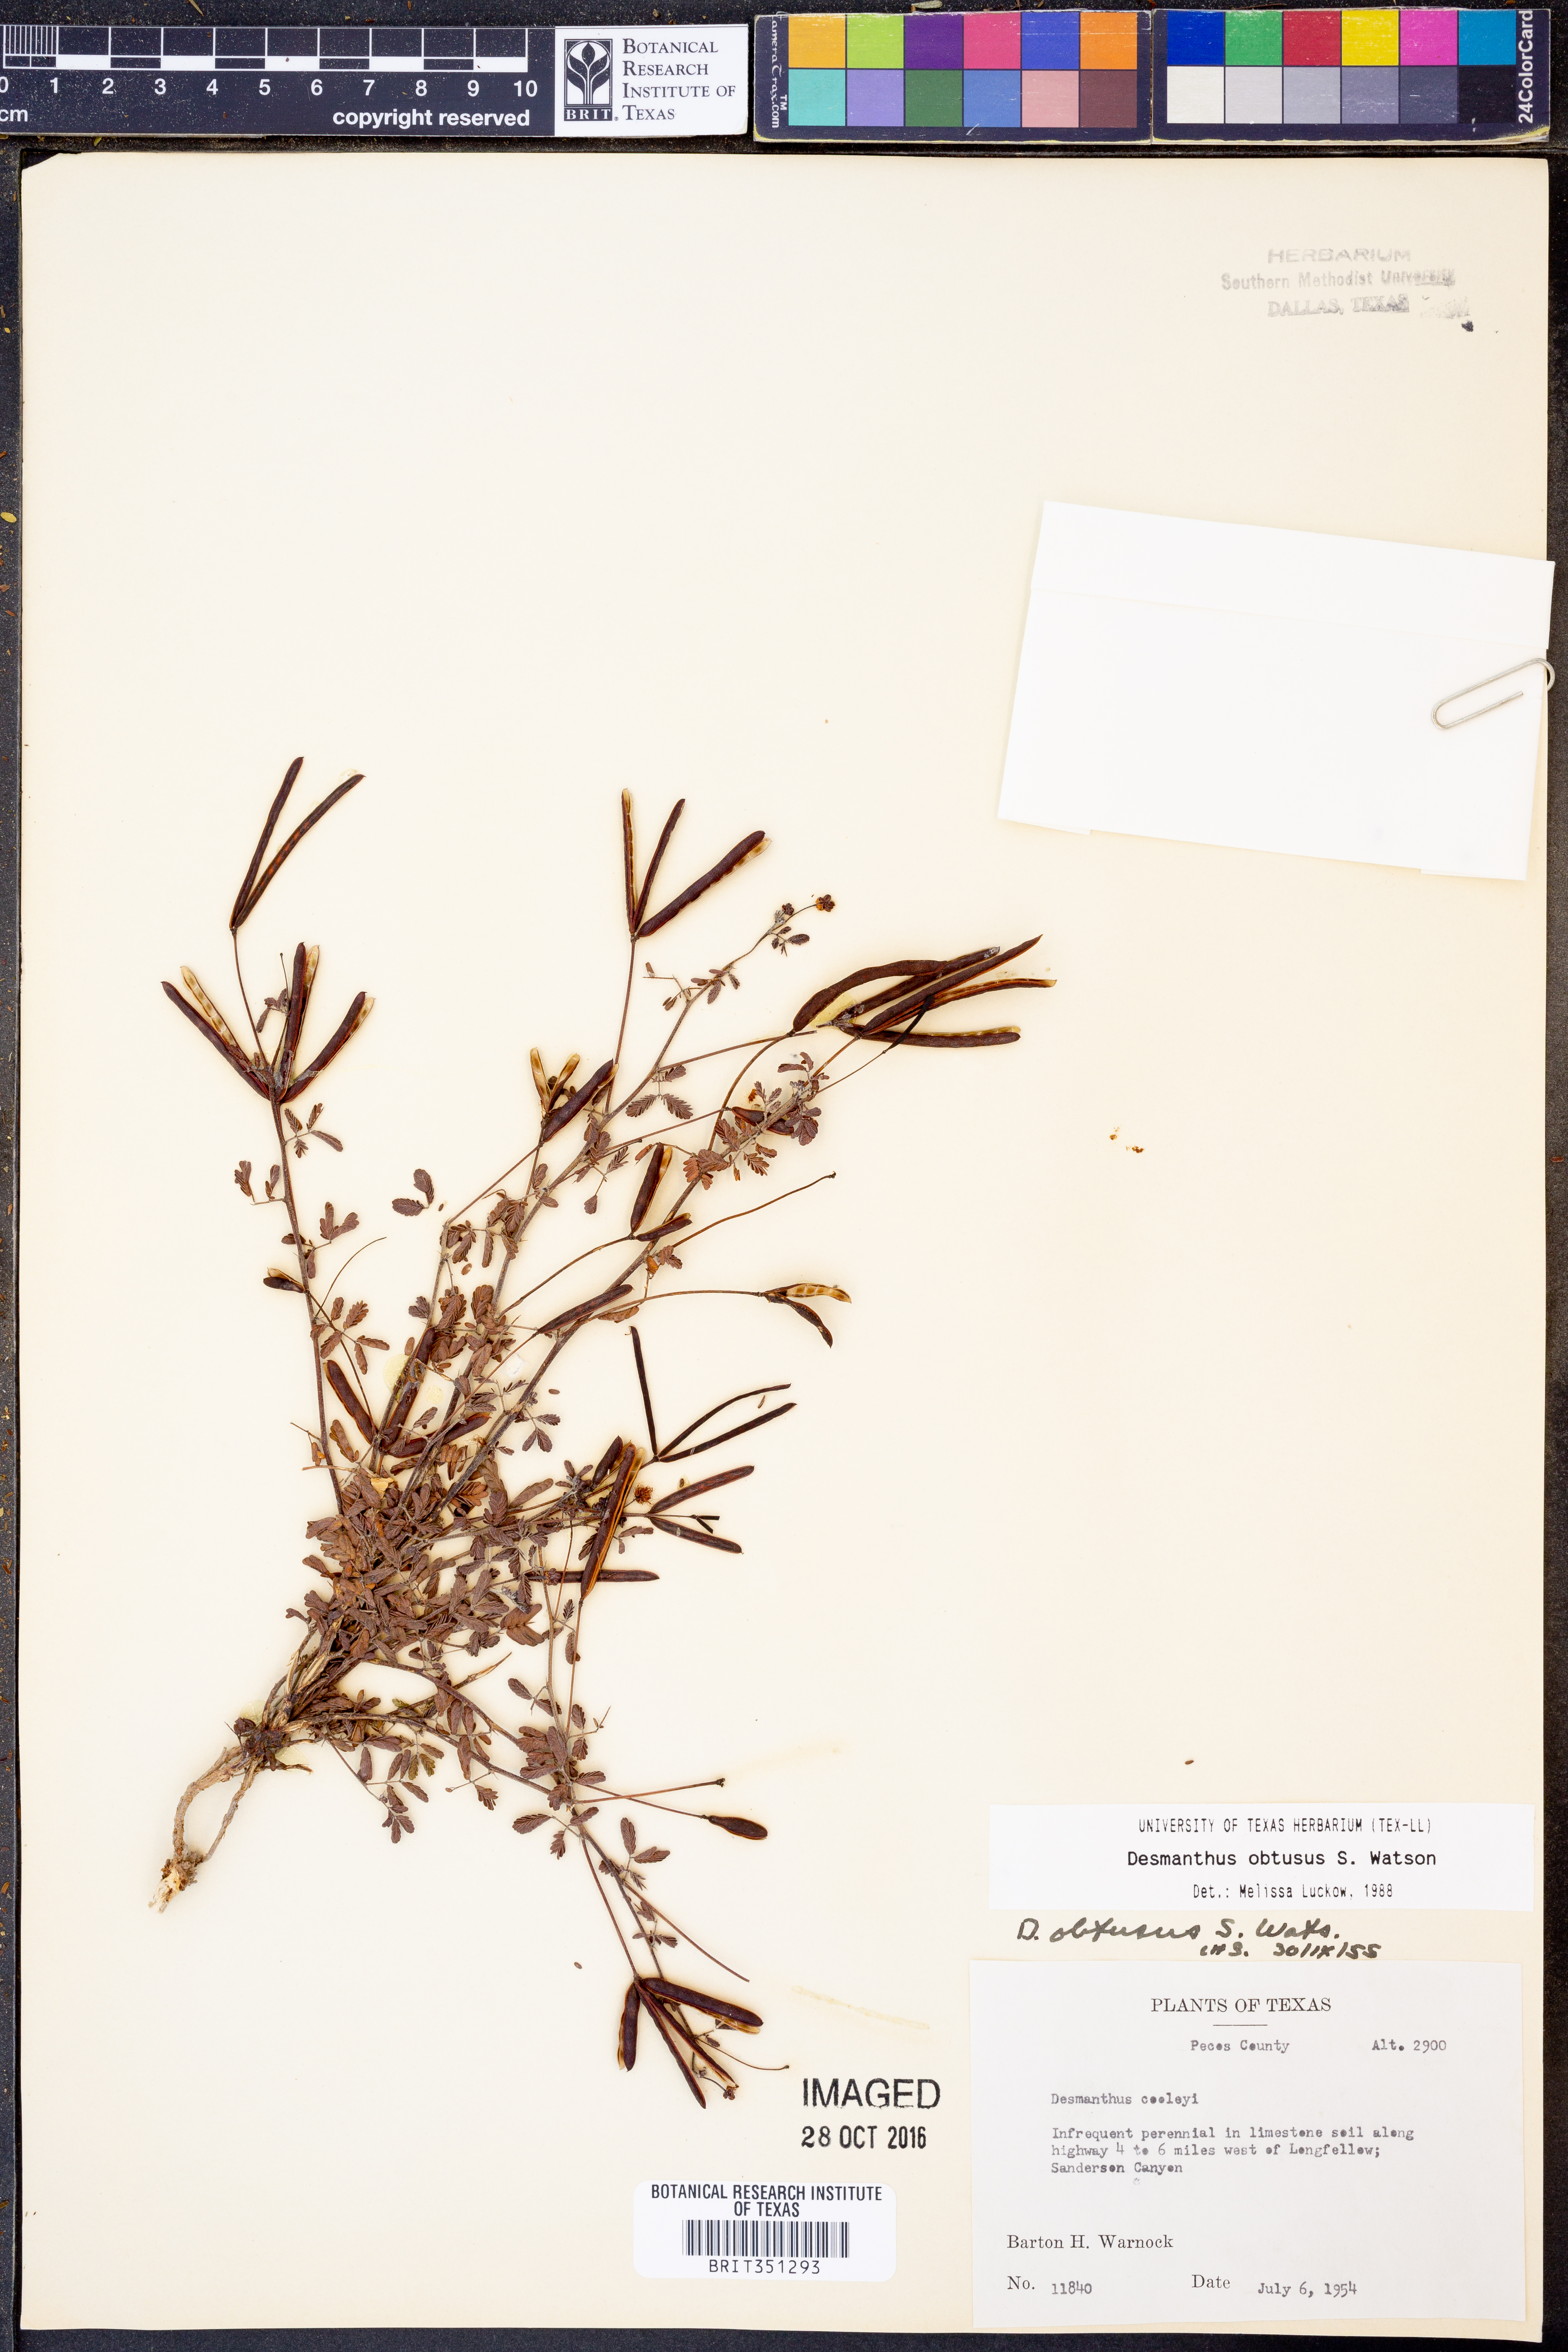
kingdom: Plantae
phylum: Tracheophyta
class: Magnoliopsida
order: Fabales
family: Fabaceae
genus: Desmanthus
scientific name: Desmanthus obtusus
